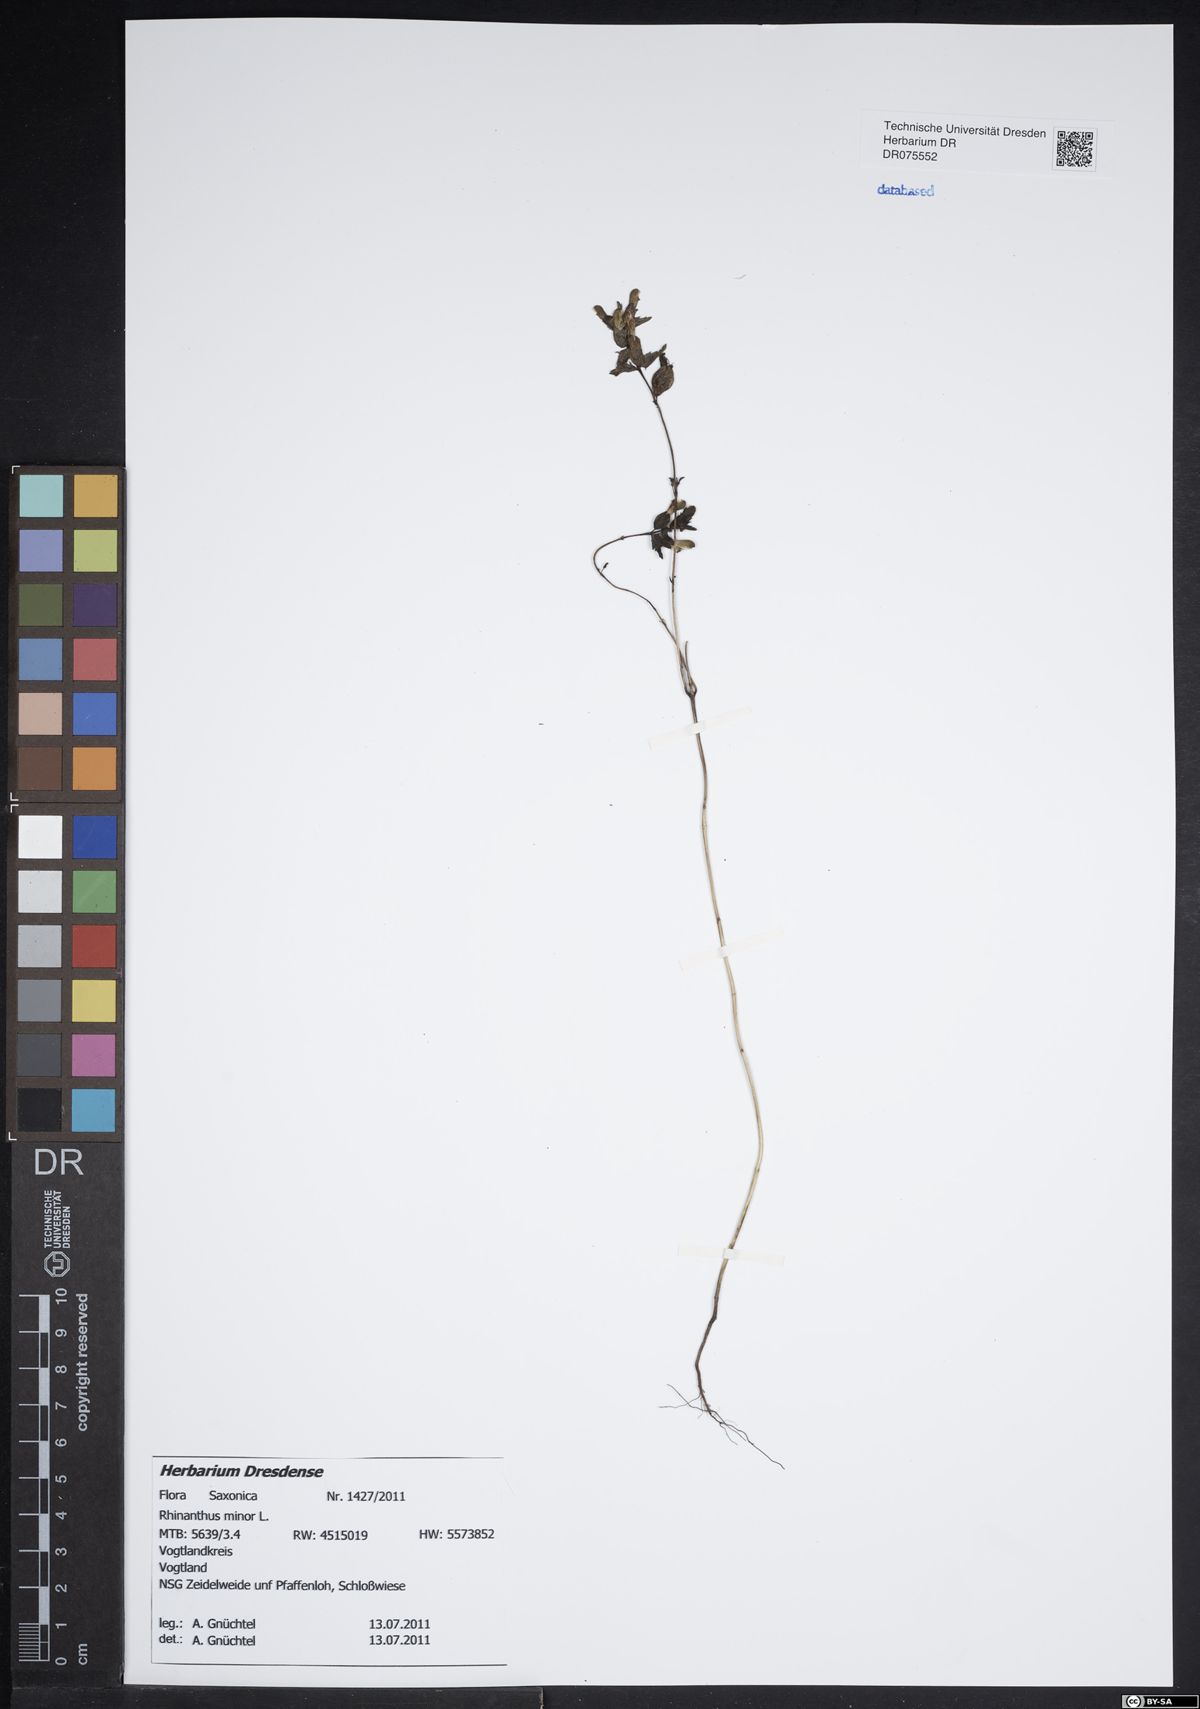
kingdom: Plantae
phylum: Tracheophyta
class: Magnoliopsida
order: Lamiales
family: Orobanchaceae
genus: Rhinanthus
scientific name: Rhinanthus minor
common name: Yellow-rattle
